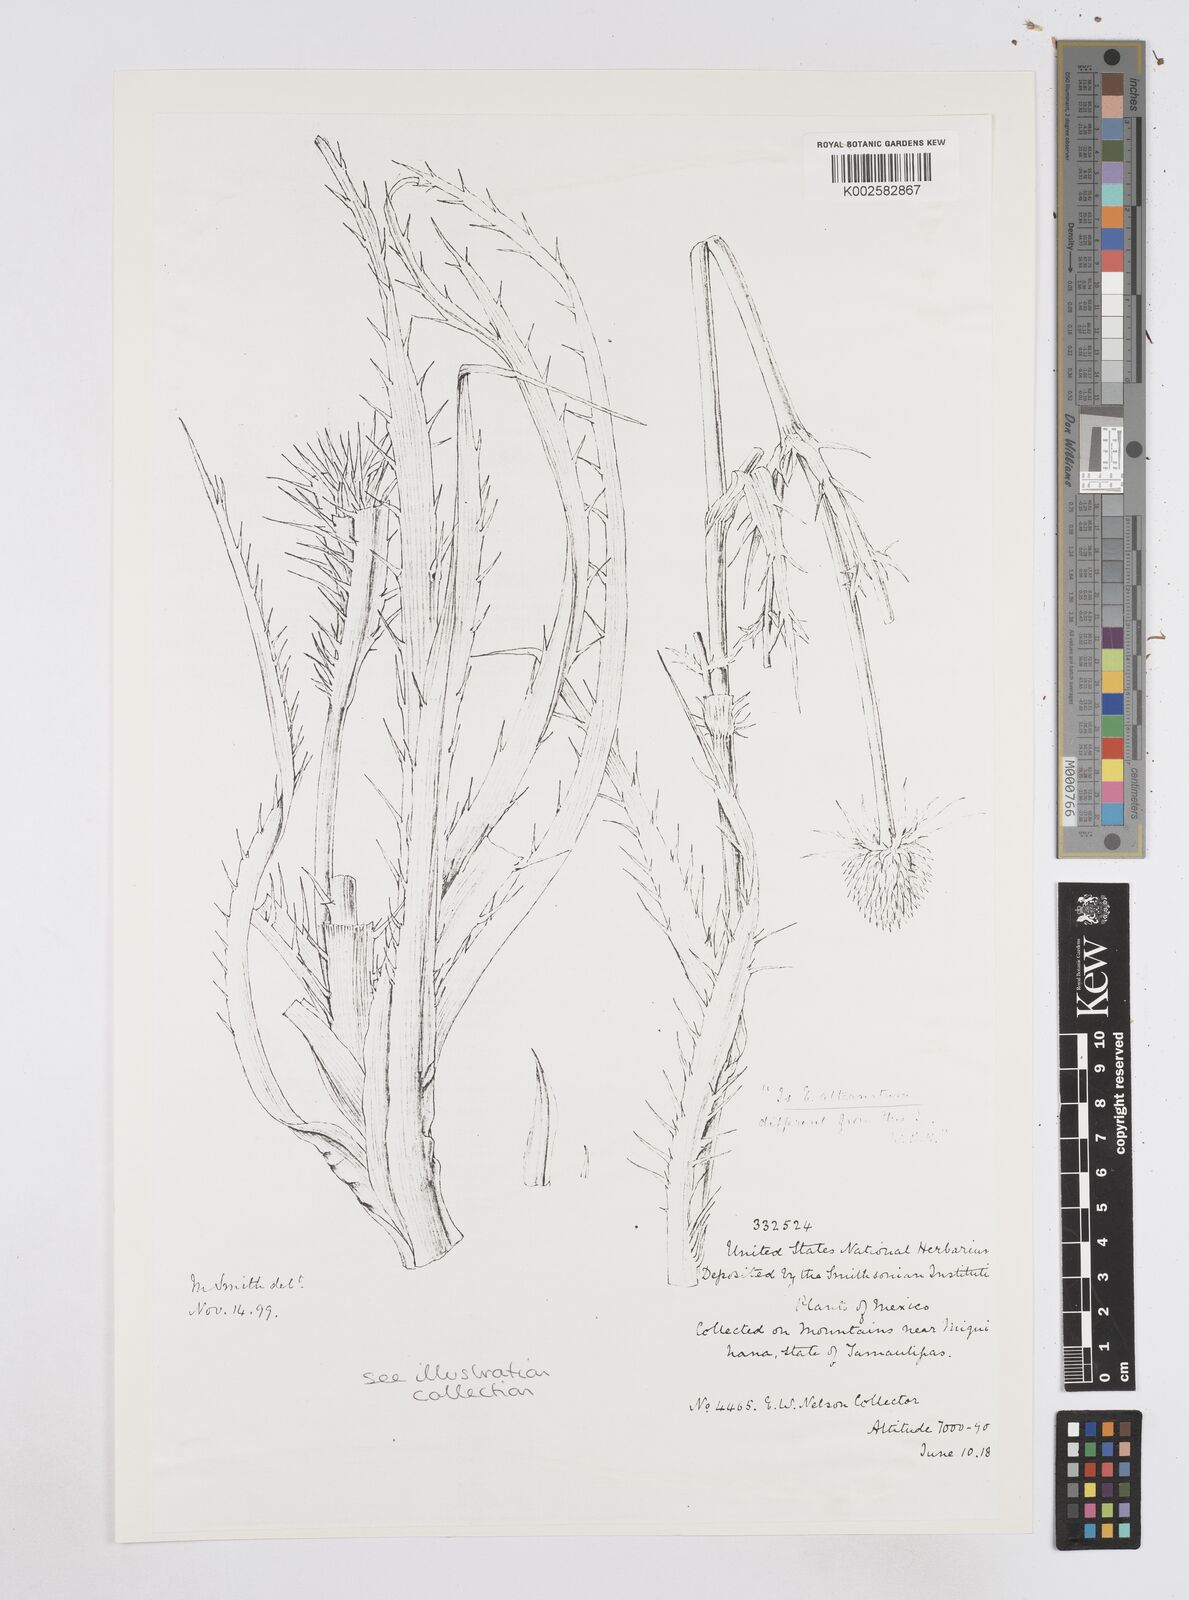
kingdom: Plantae
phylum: Tracheophyta
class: Magnoliopsida
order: Apiales
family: Apiaceae
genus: Eryngium
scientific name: Eryngium alternatum
